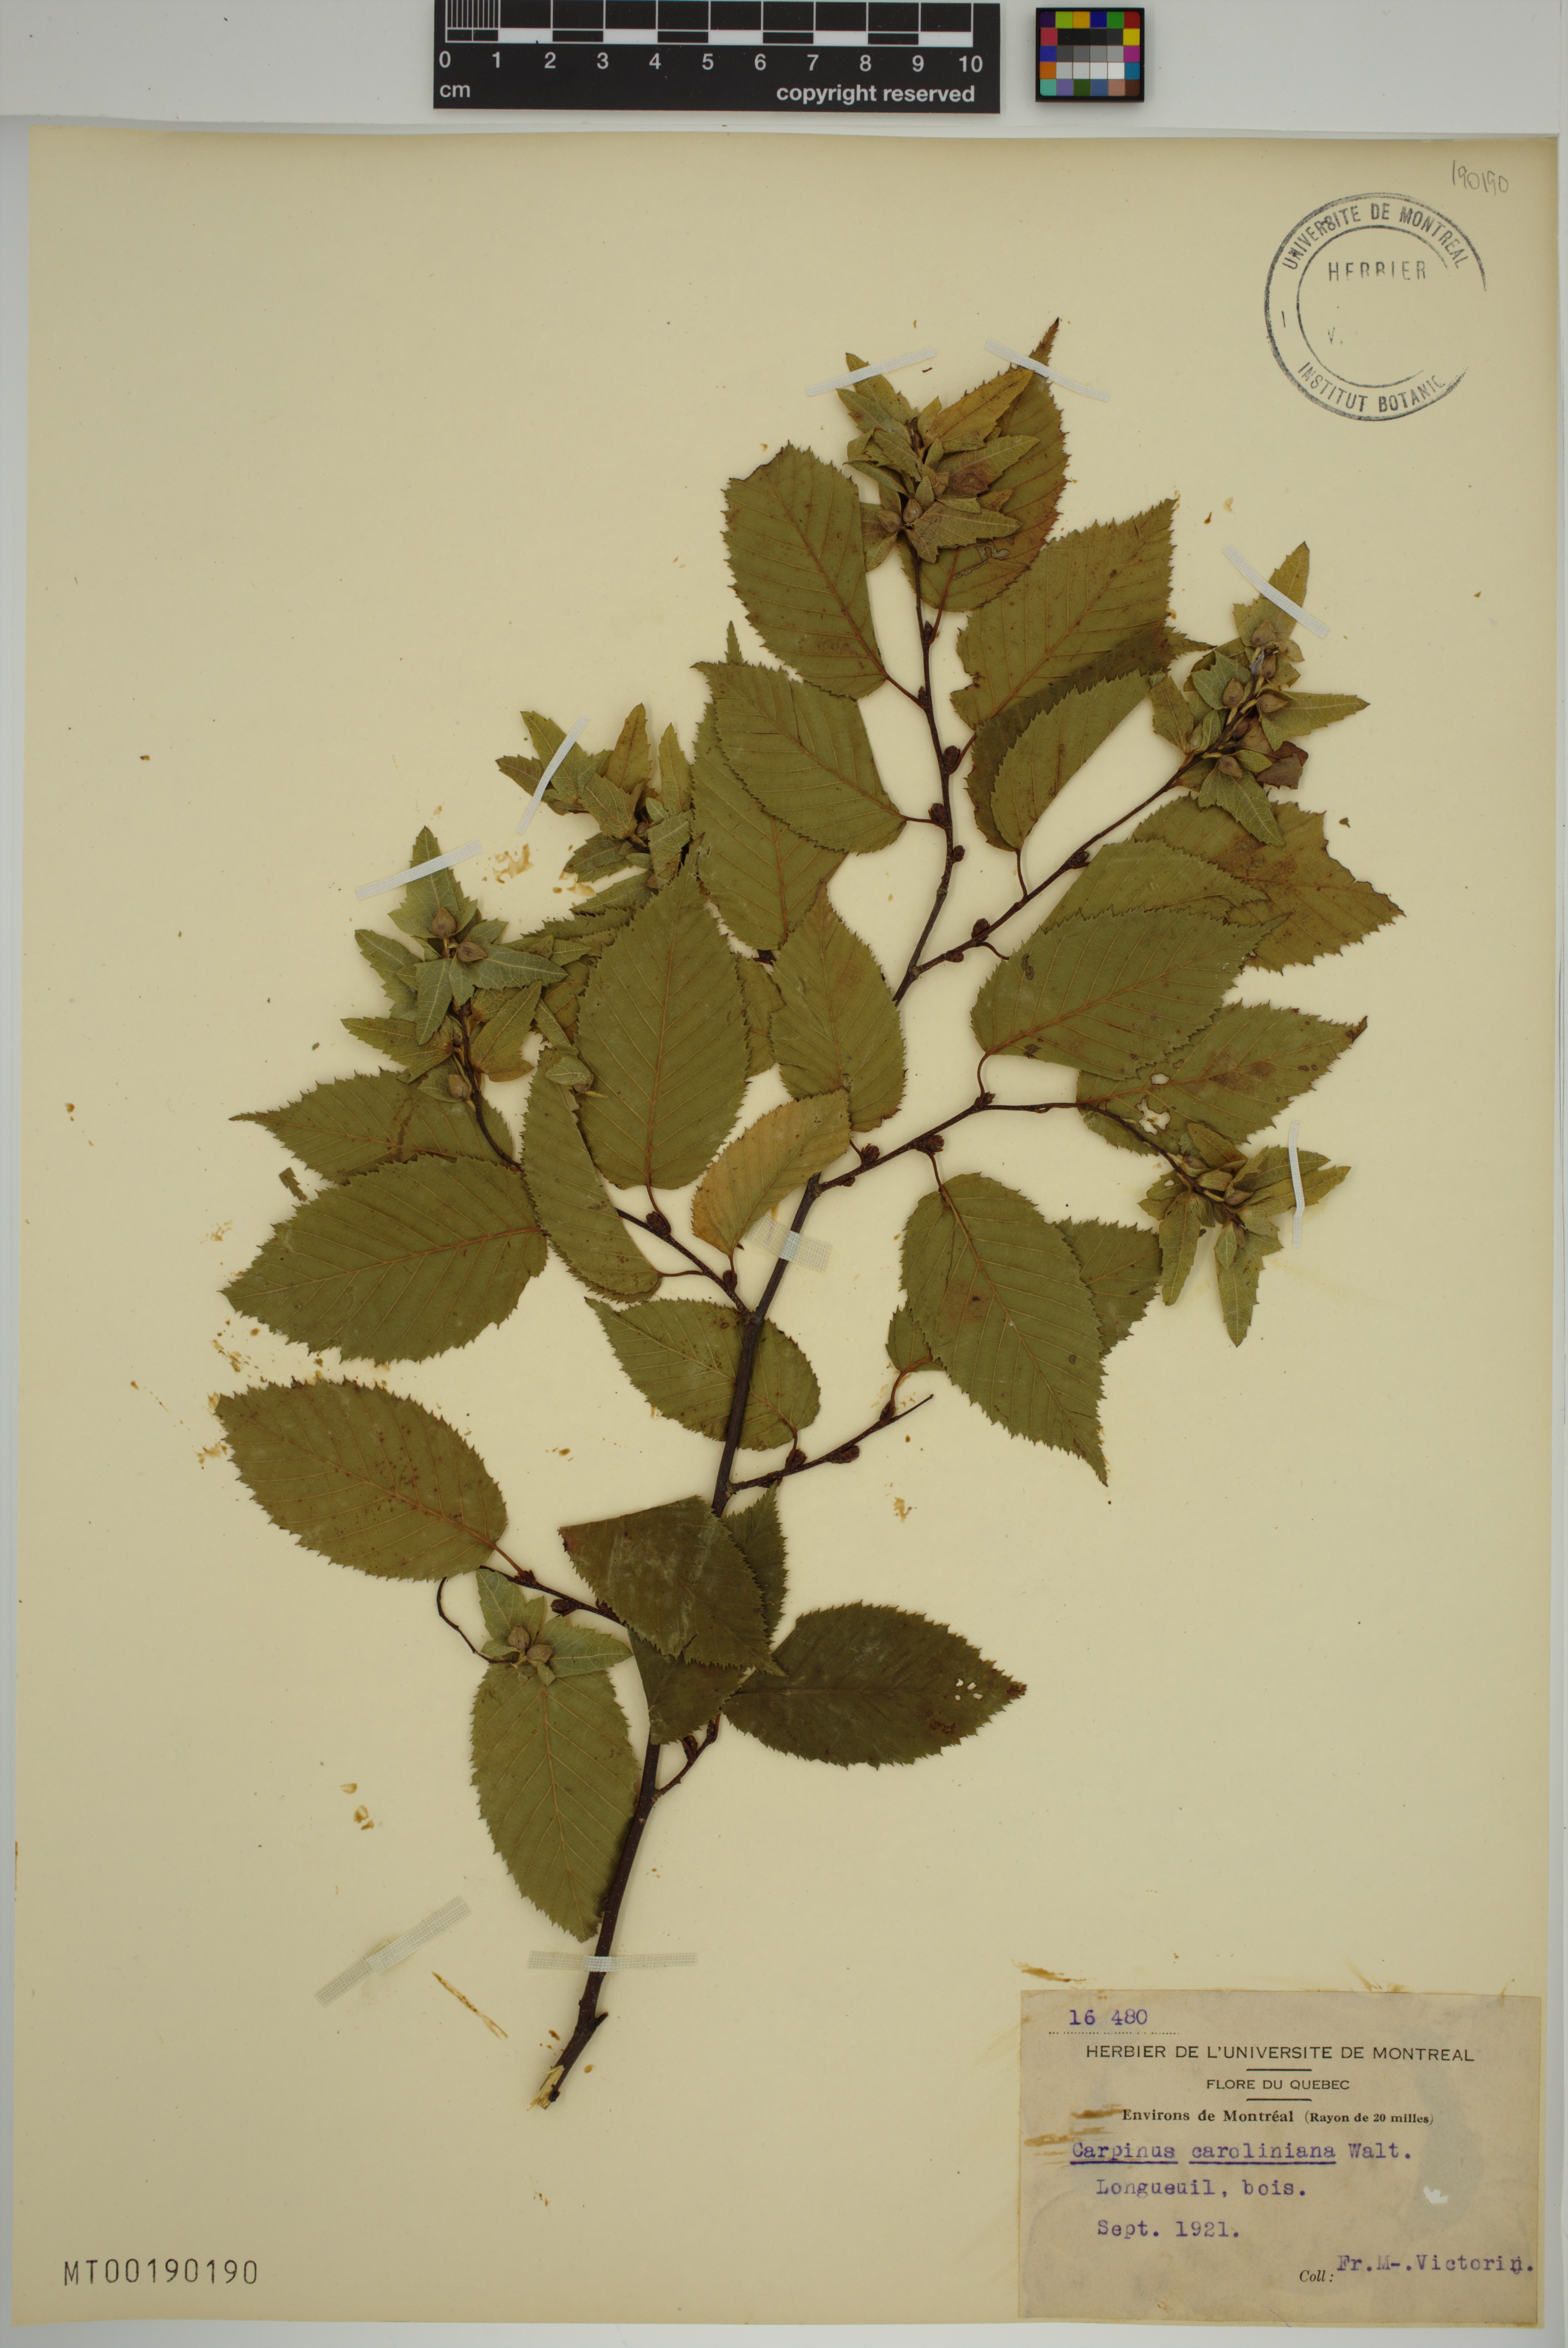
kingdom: Plantae
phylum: Tracheophyta
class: Magnoliopsida
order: Fagales
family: Betulaceae
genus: Carpinus
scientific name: Carpinus caroliniana
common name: American hornbeam
